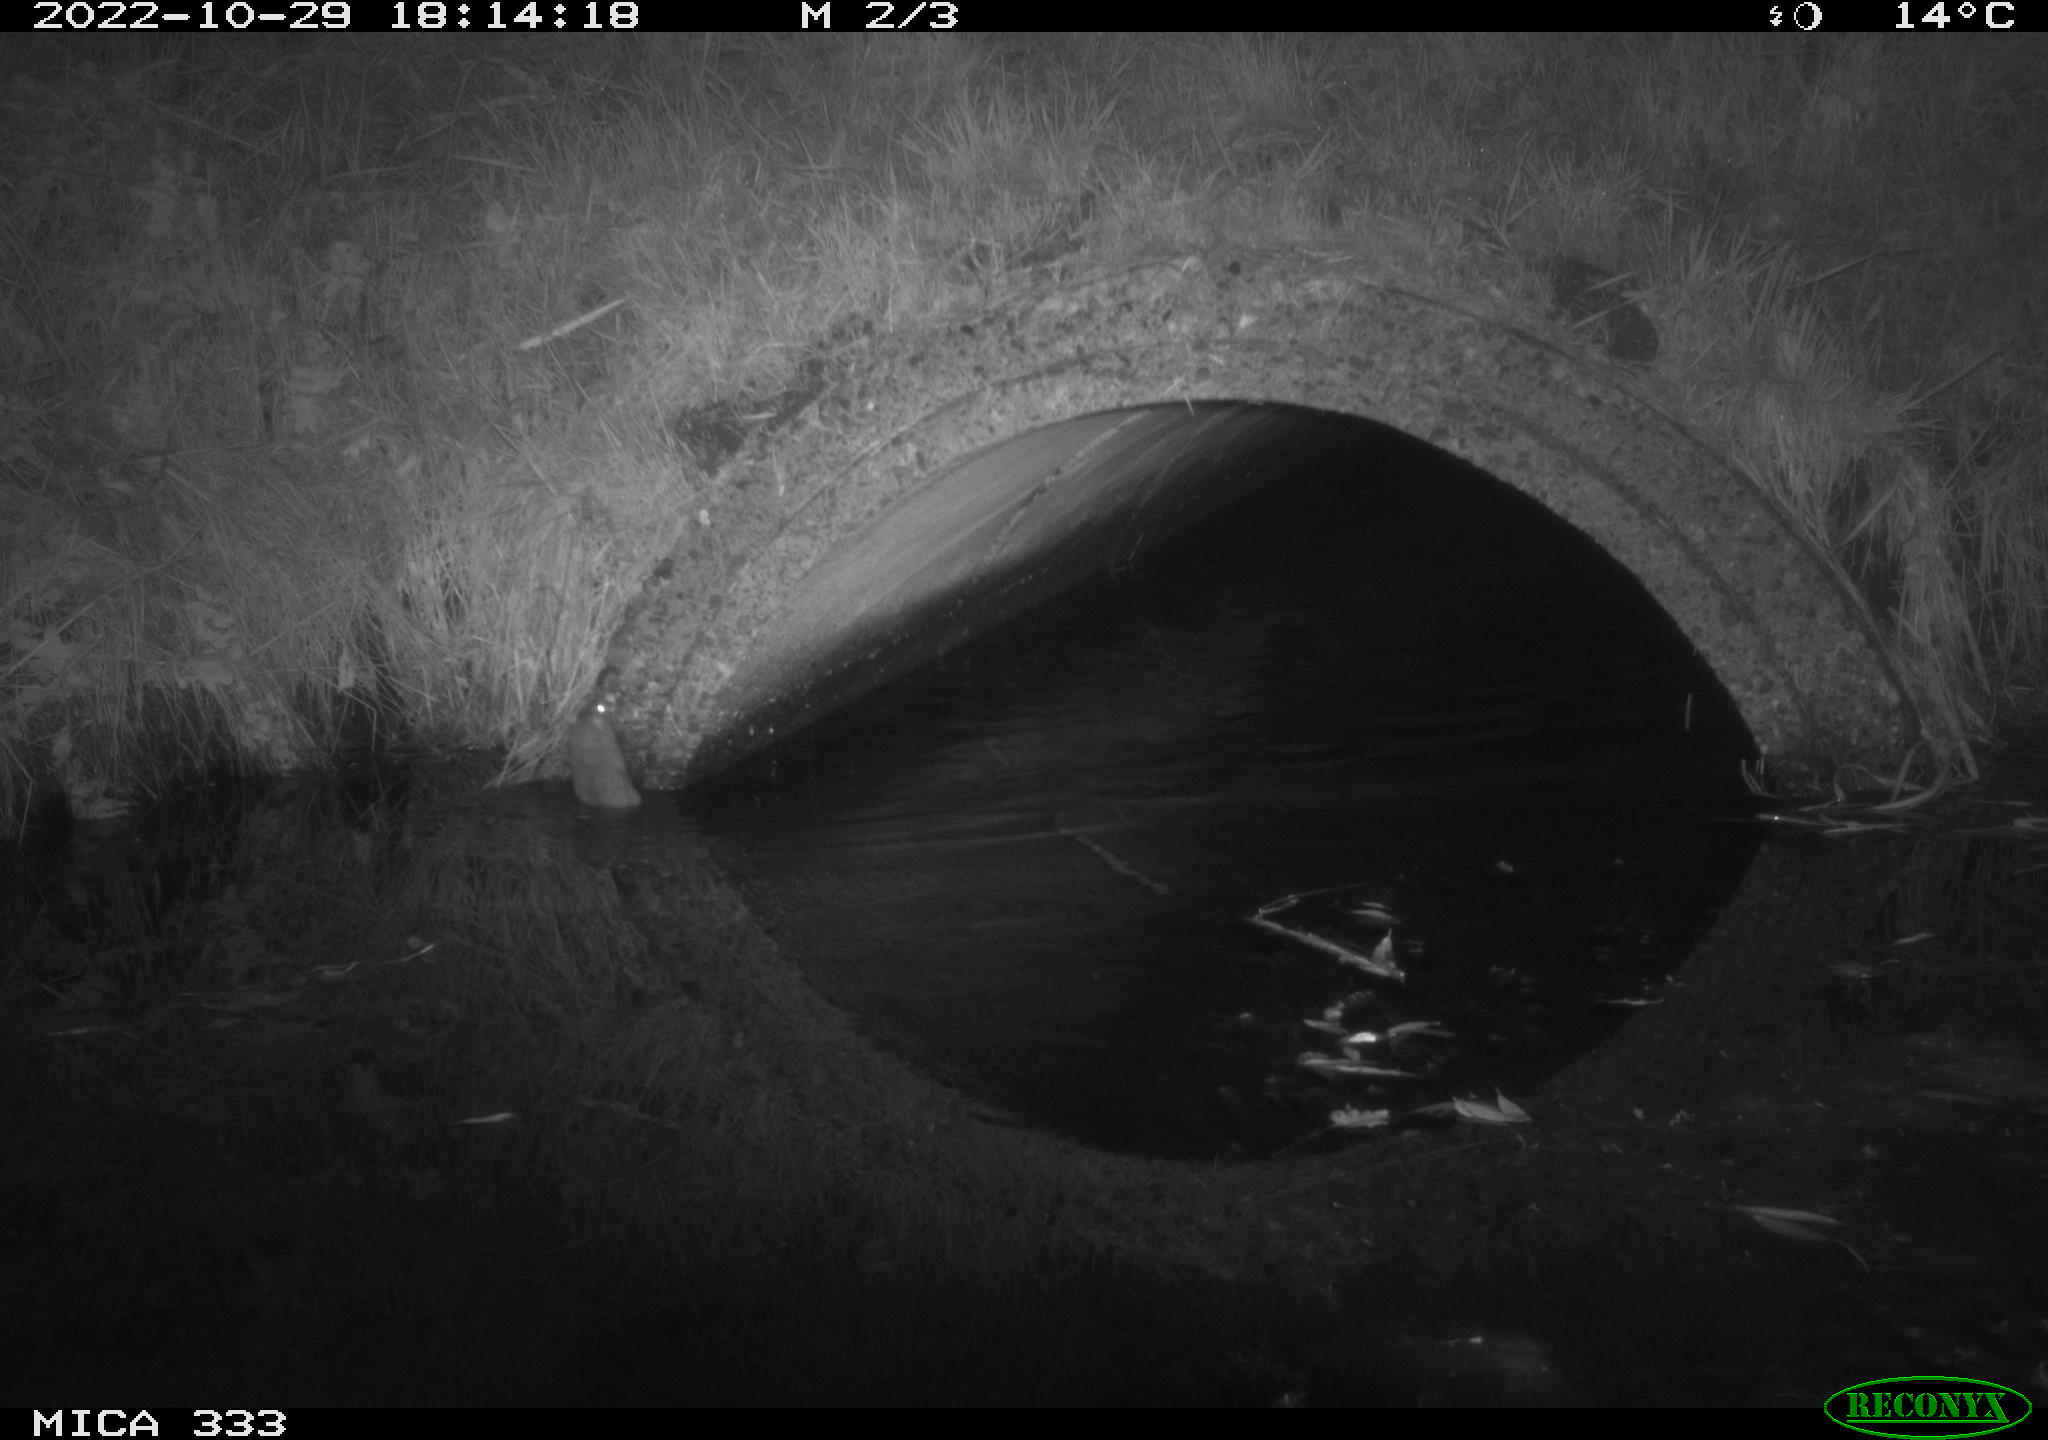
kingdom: Animalia
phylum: Chordata
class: Mammalia
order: Rodentia
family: Muridae
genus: Rattus
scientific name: Rattus norvegicus
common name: Brown rat
